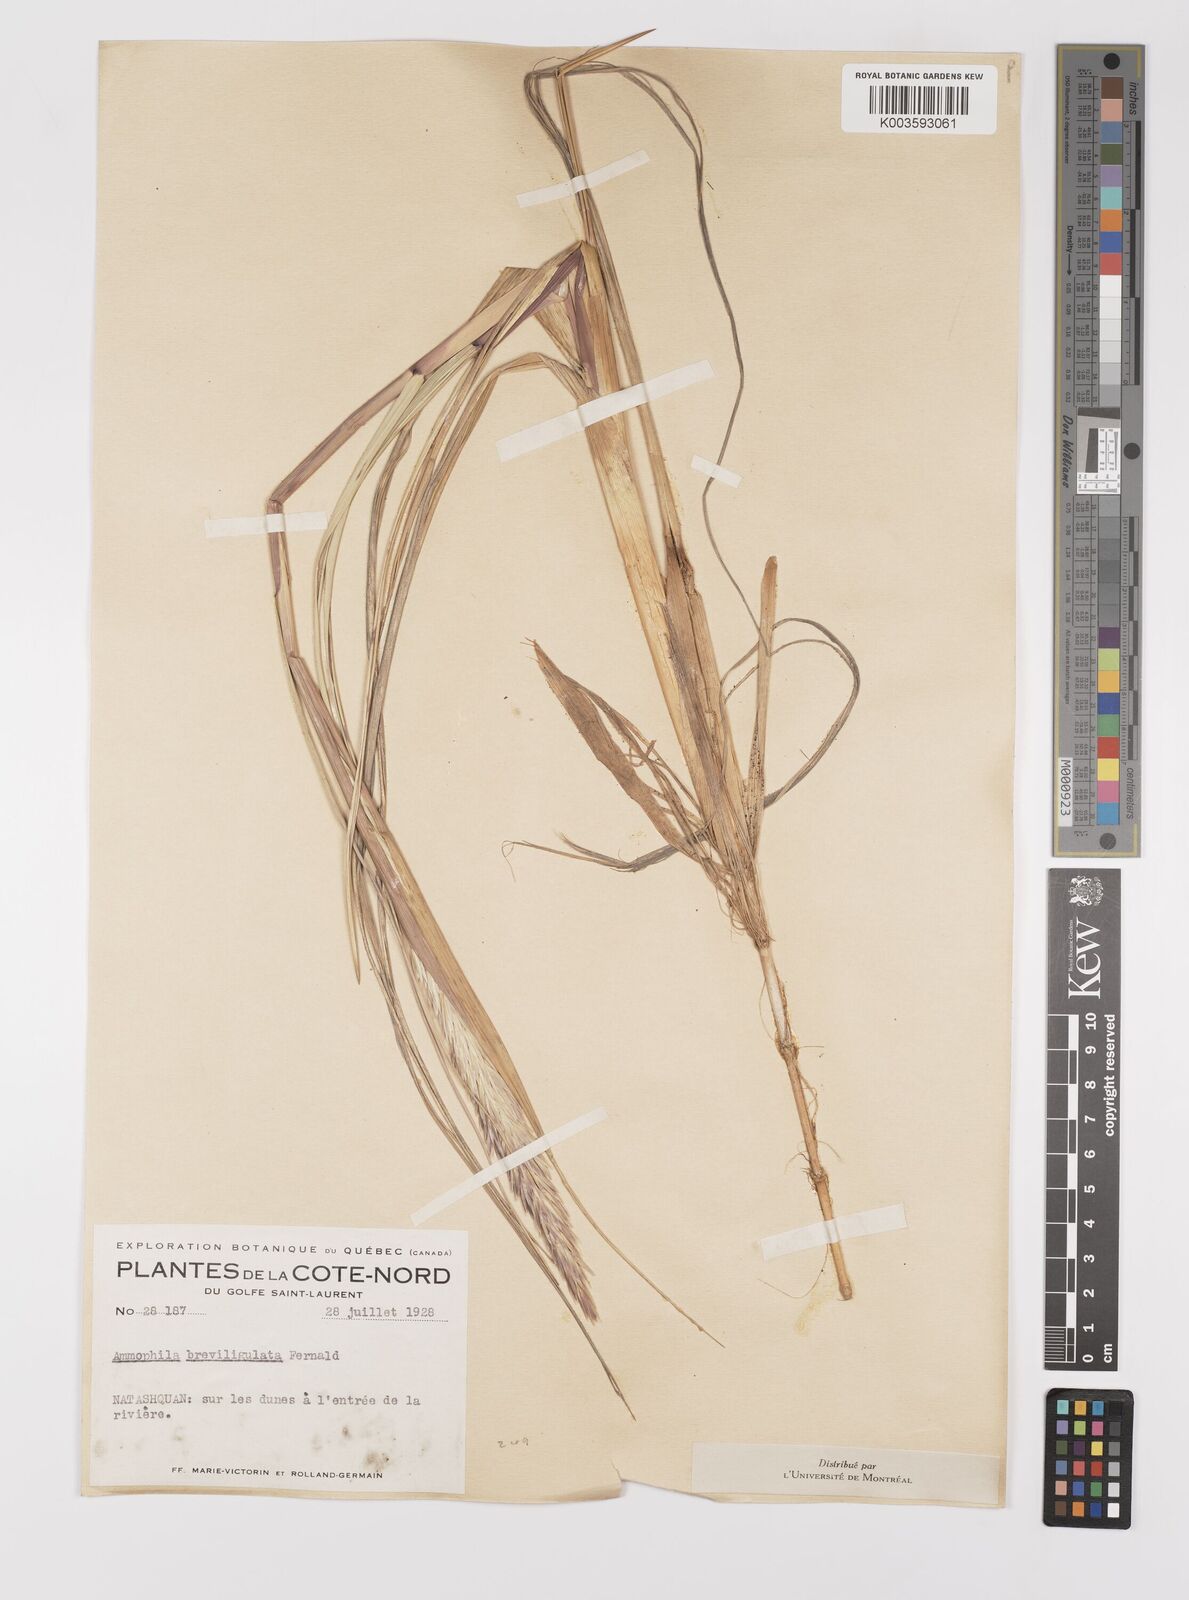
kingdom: Plantae
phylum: Tracheophyta
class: Liliopsida
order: Poales
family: Poaceae
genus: Calamagrostis
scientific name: Calamagrostis breviligulata
